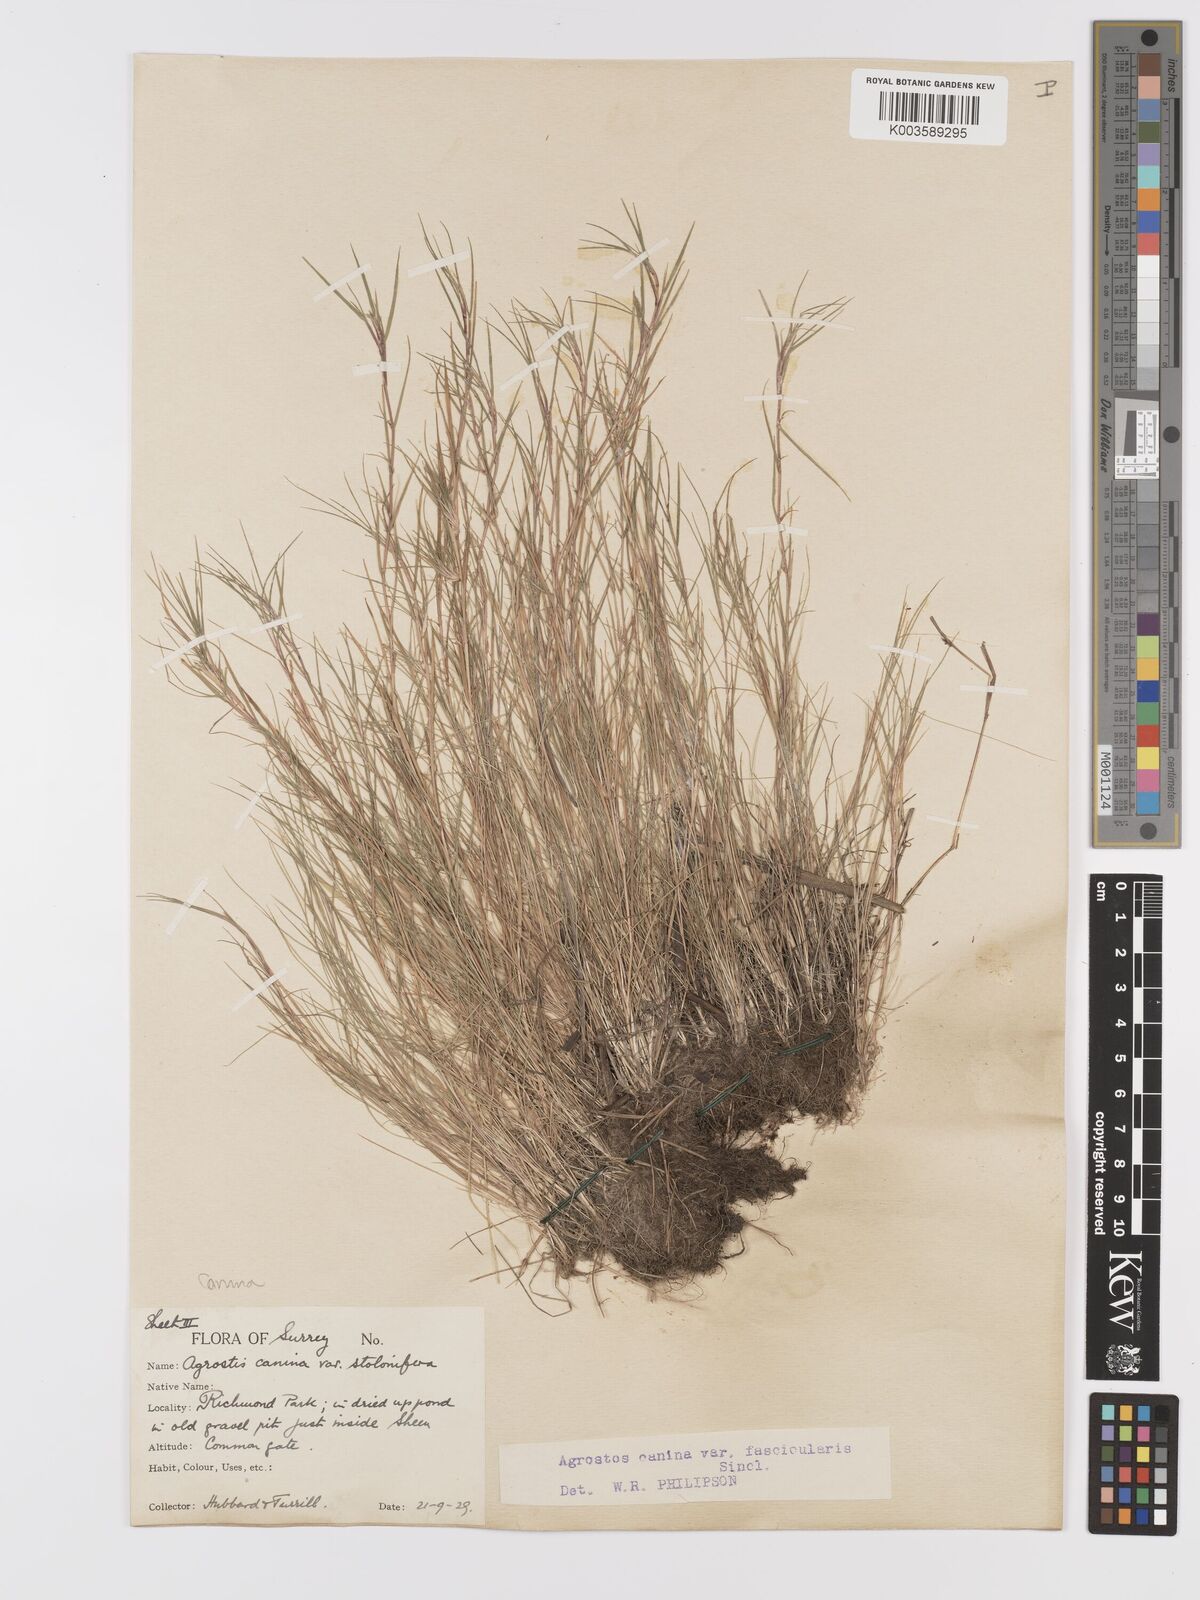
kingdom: Plantae
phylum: Tracheophyta
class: Liliopsida
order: Poales
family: Poaceae
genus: Agrostis
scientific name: Agrostis canina
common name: Velvet bent
